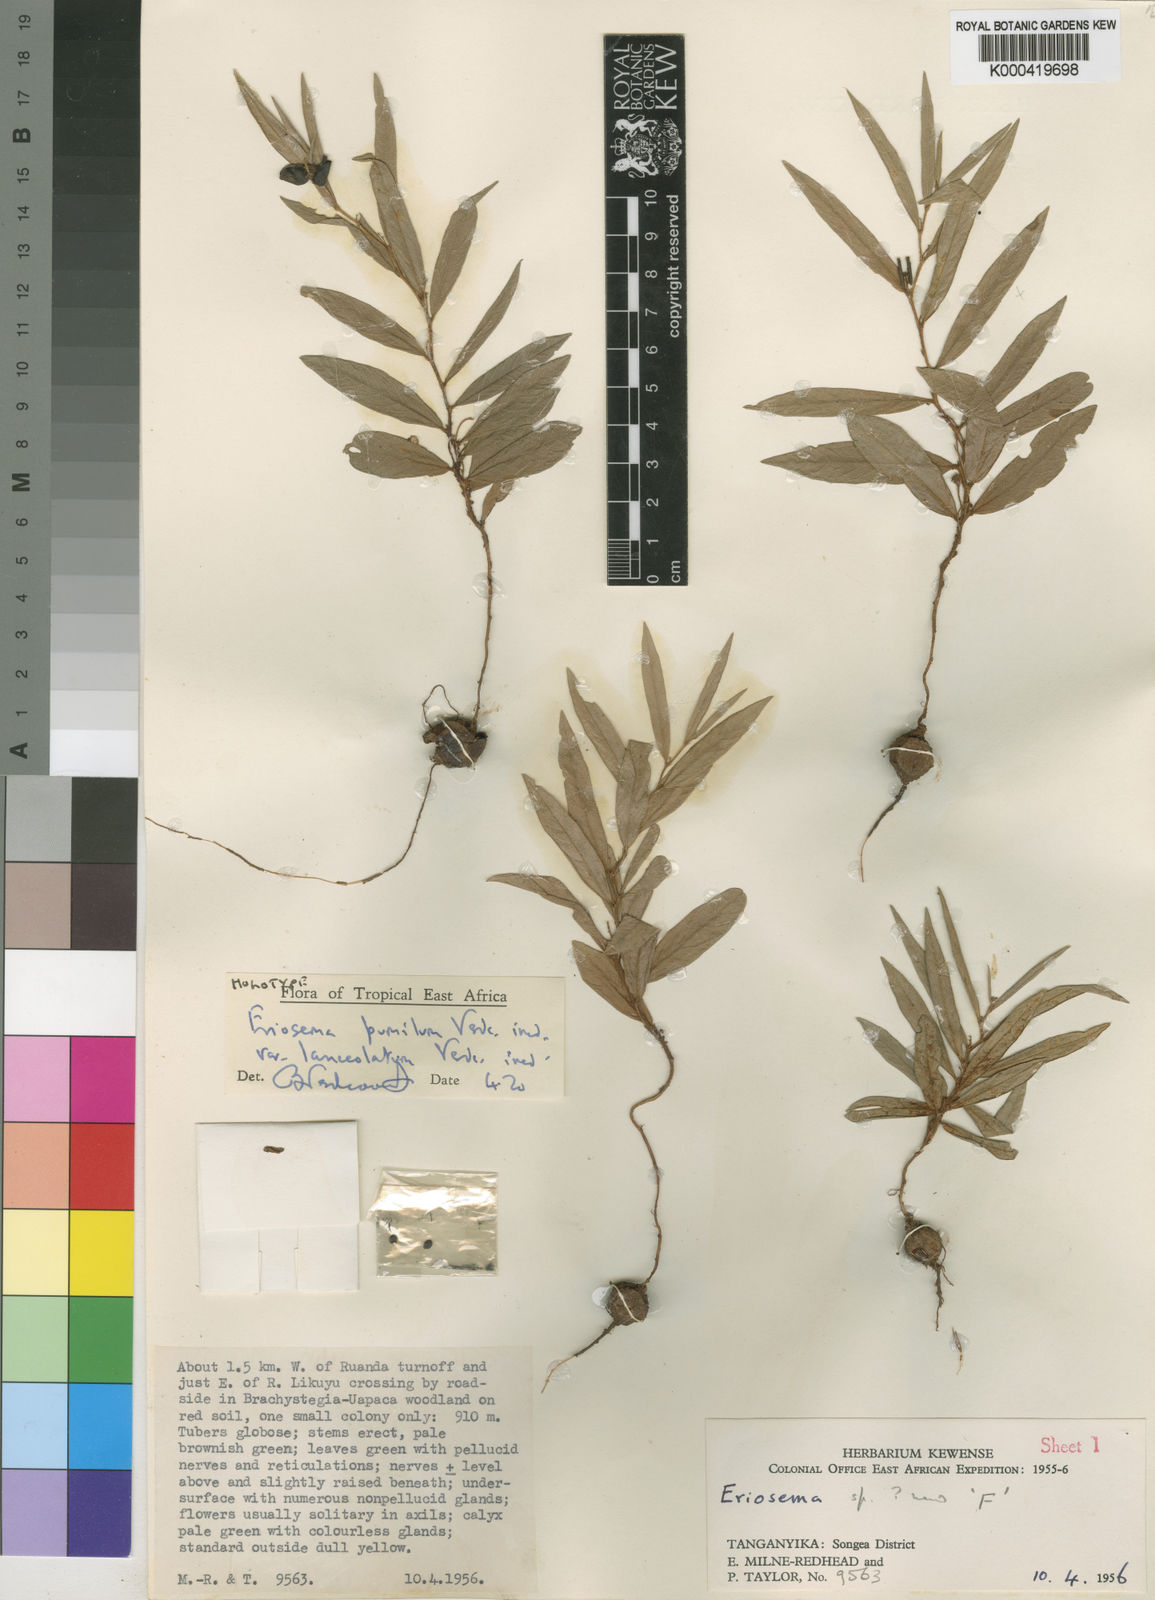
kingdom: Plantae
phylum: Tracheophyta
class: Magnoliopsida
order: Fabales
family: Fabaceae
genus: Eriosema
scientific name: Eriosema pumilum
